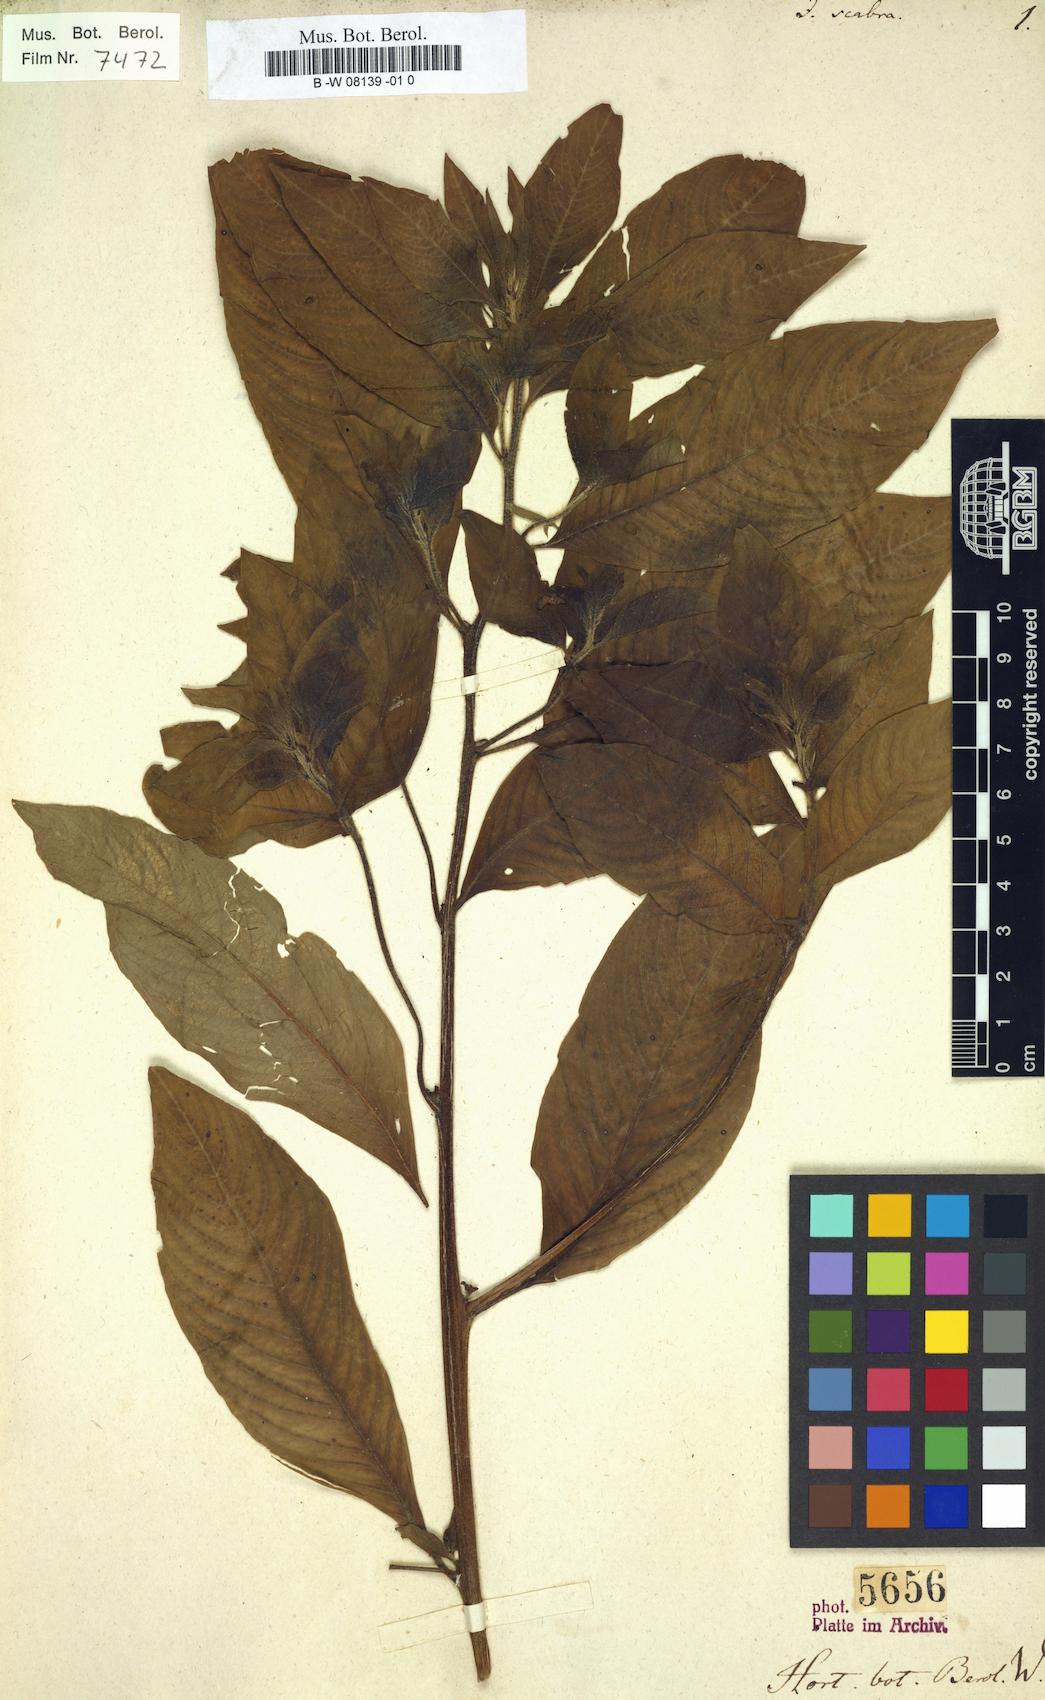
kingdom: Plantae
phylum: Tracheophyta
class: Magnoliopsida
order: Myrtales
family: Onagraceae
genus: Ludwigia
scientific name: Ludwigia octovalvis
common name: Water-primrose
